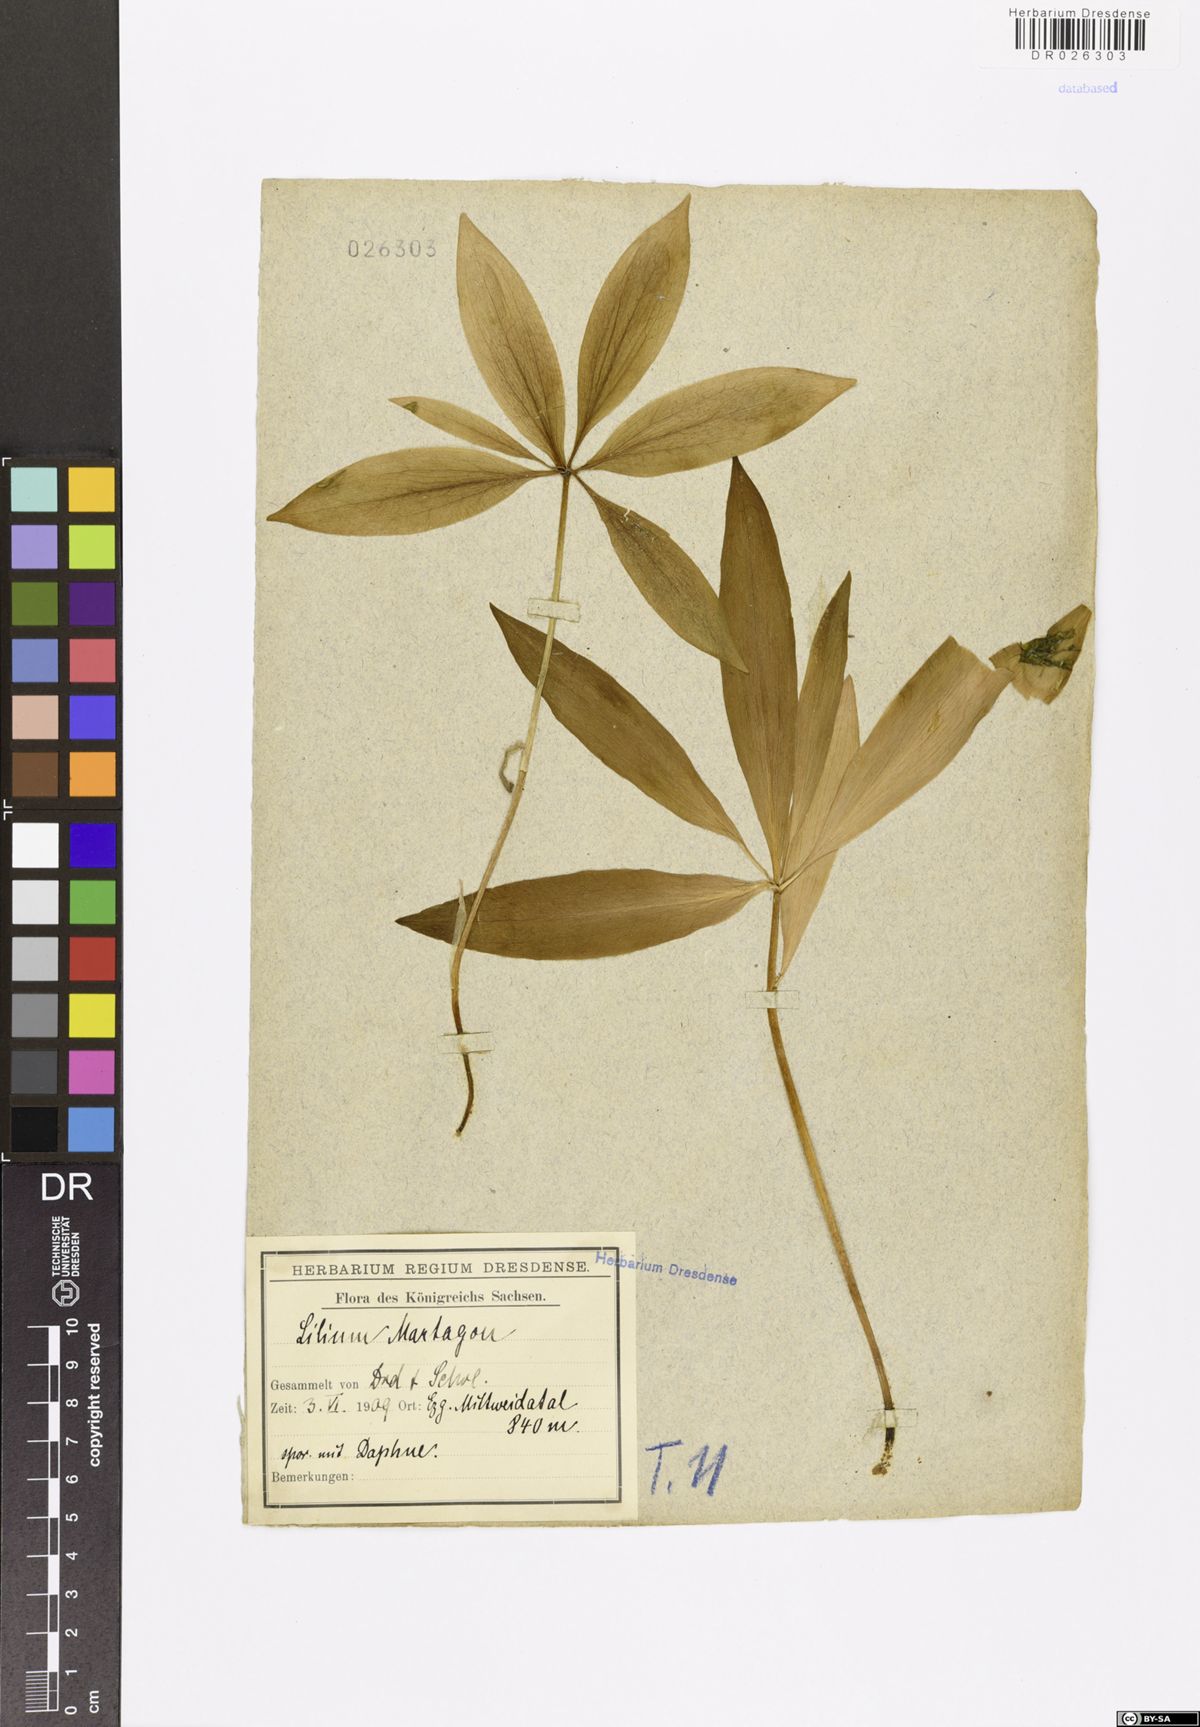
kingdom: Plantae
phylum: Tracheophyta
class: Liliopsida
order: Liliales
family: Liliaceae
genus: Lilium
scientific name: Lilium martagon
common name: Martagon lily
